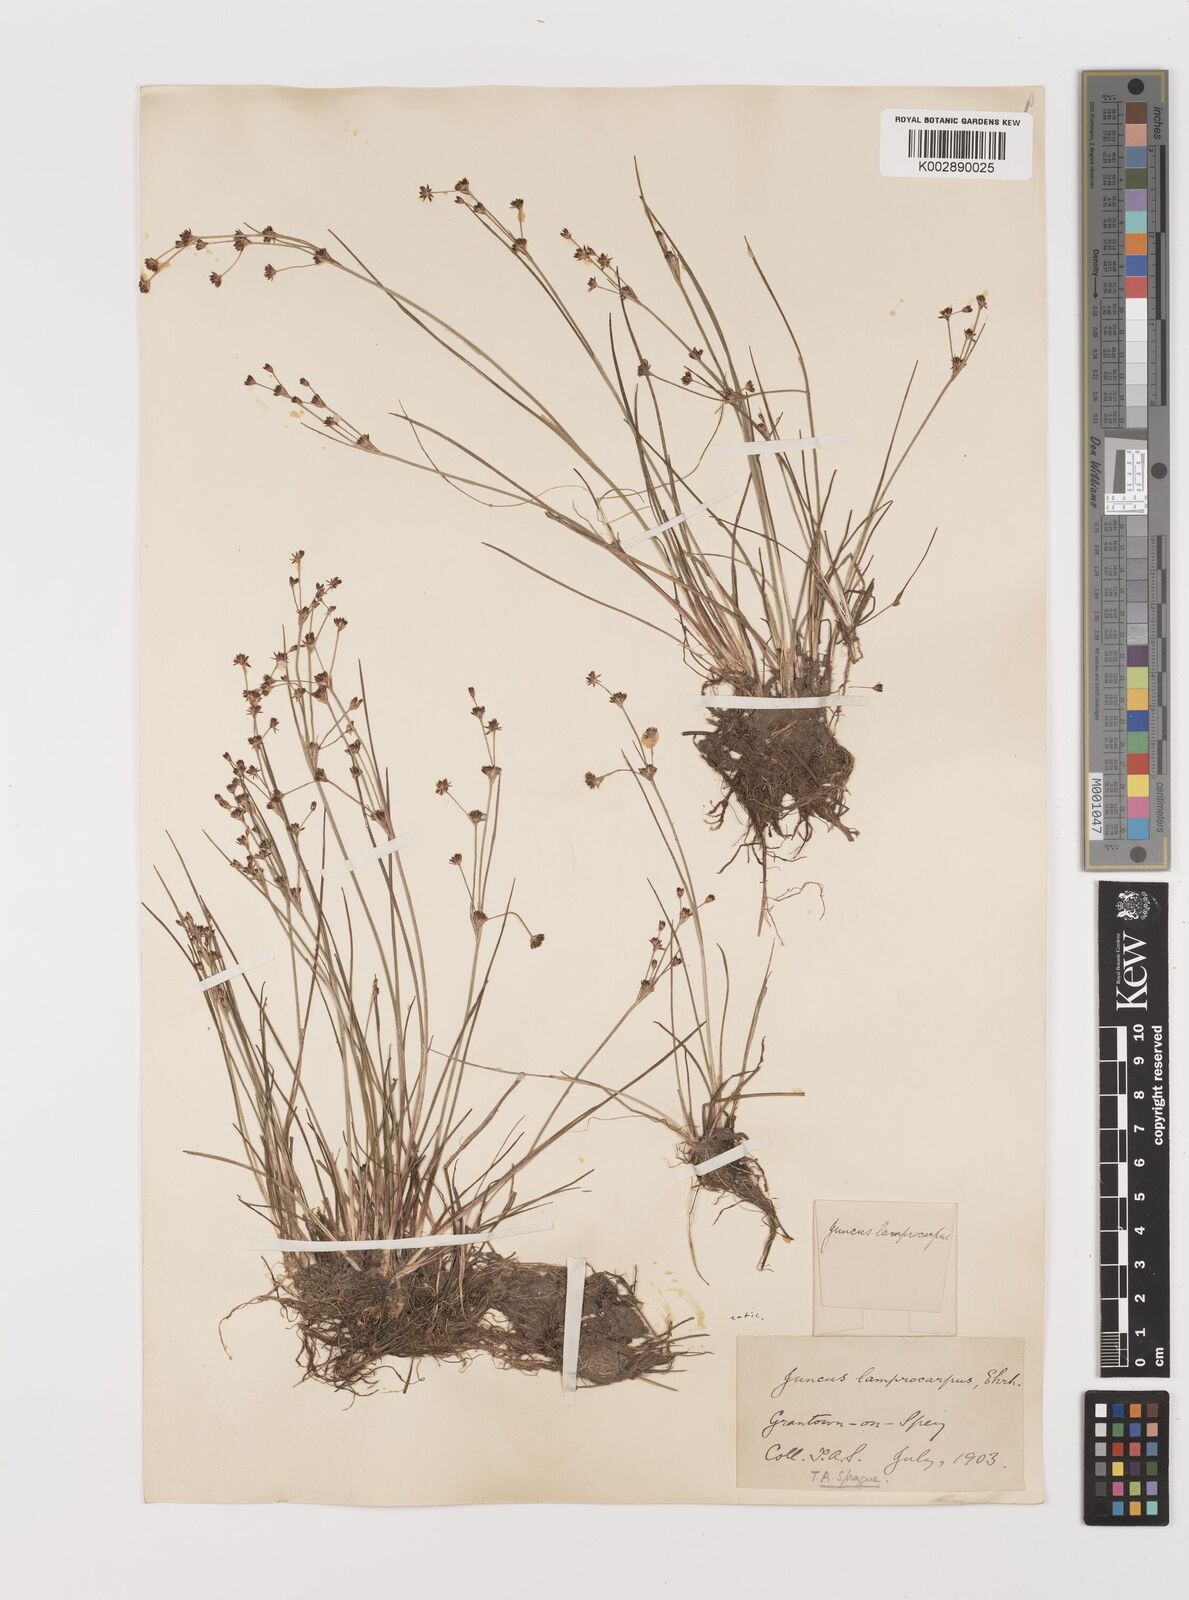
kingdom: Plantae
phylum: Tracheophyta
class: Liliopsida
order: Poales
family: Juncaceae
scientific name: Juncaceae
